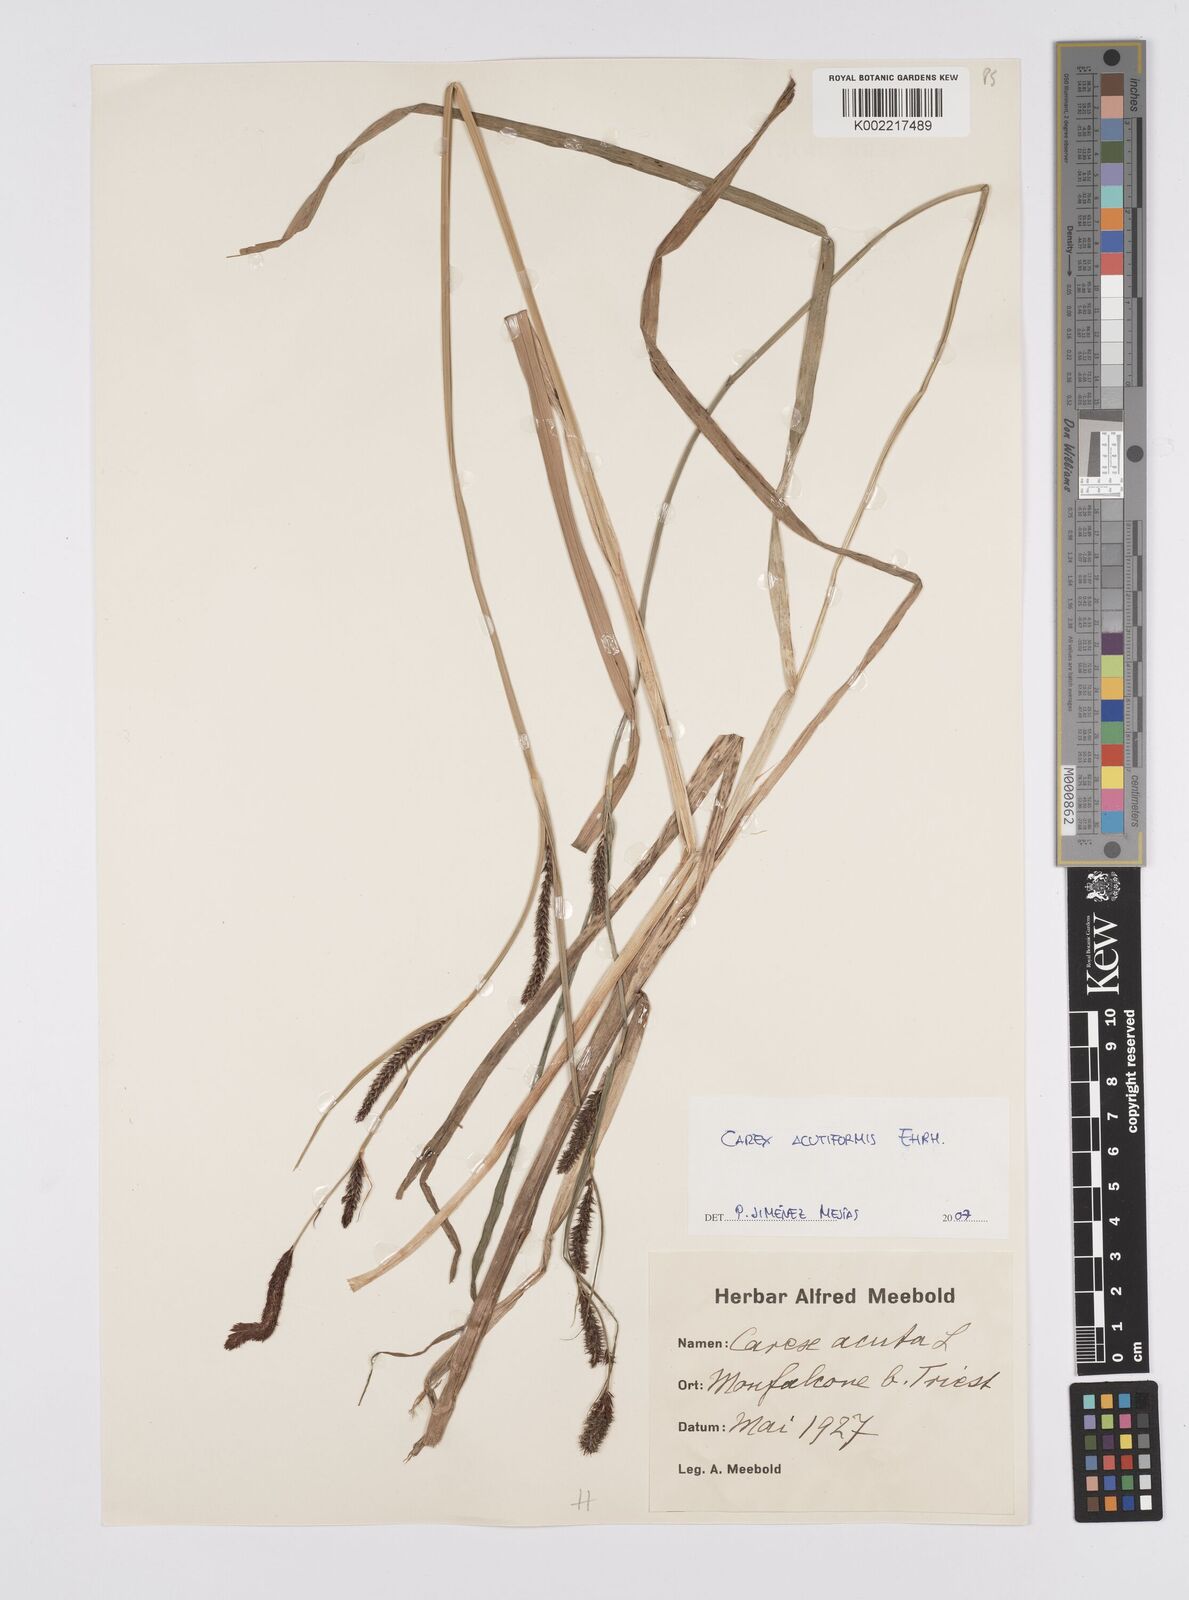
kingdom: Plantae
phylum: Tracheophyta
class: Liliopsida
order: Poales
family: Cyperaceae
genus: Carex
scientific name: Carex acutiformis
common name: Lesser pond-sedge
